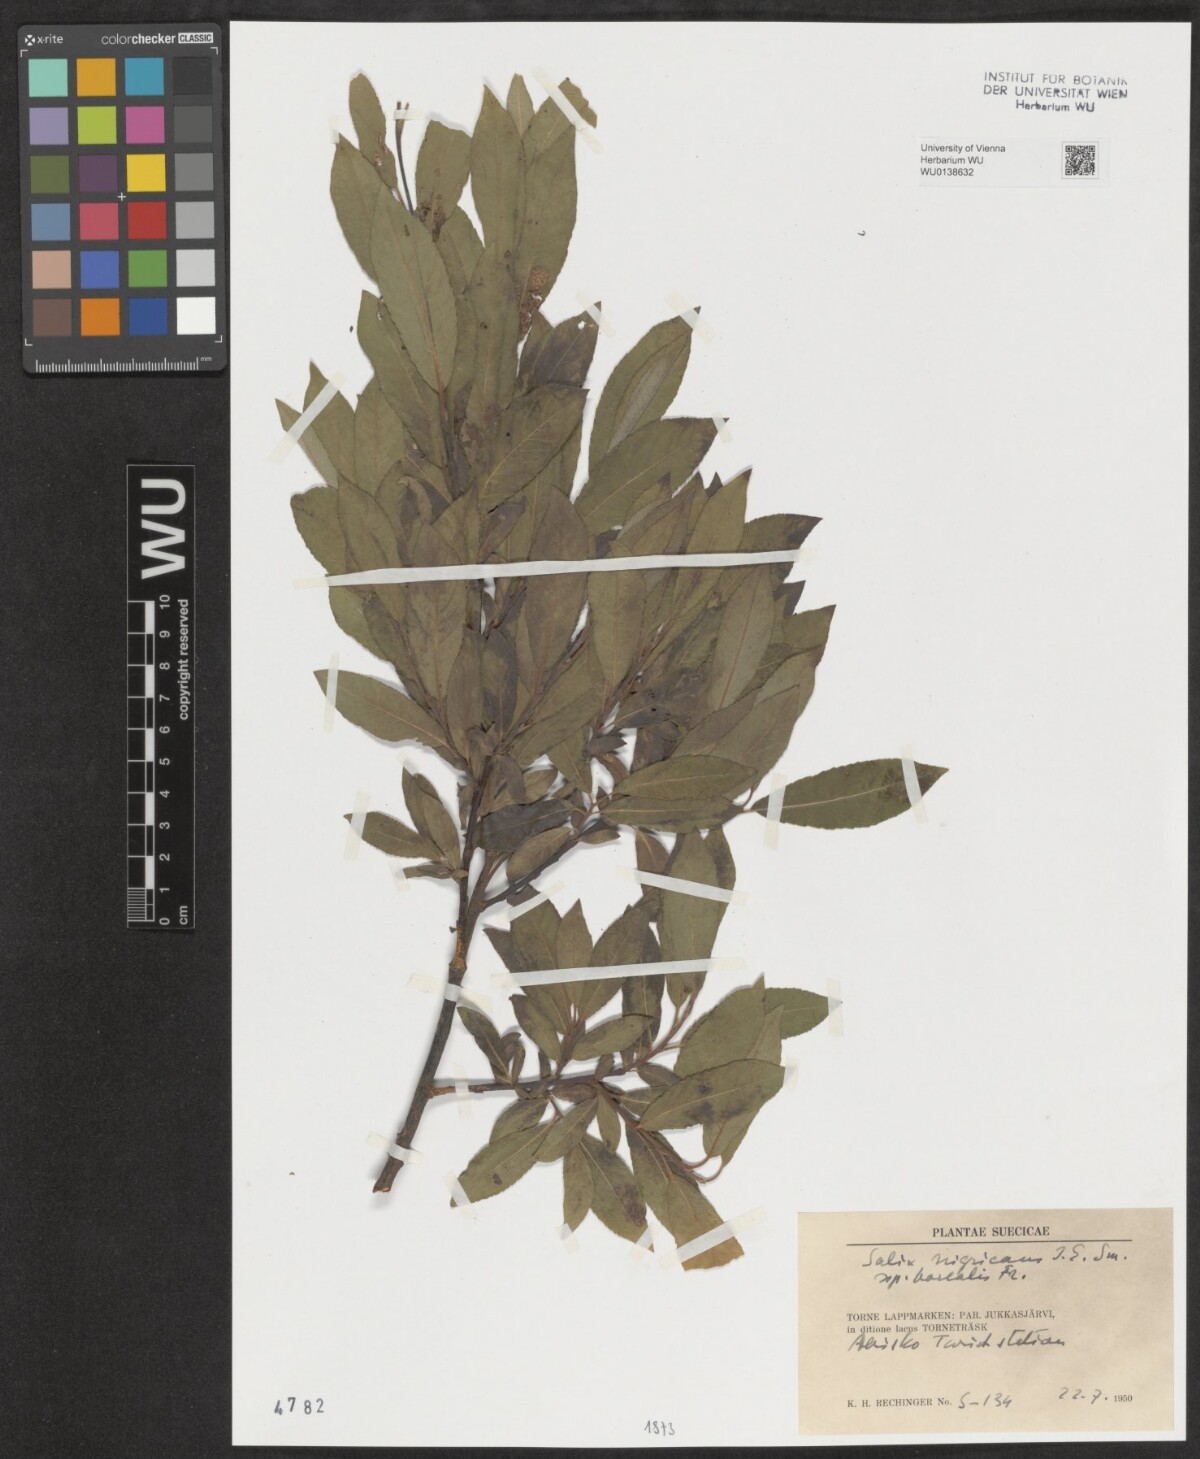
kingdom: Plantae
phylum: Tracheophyta
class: Magnoliopsida
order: Malpighiales
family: Salicaceae
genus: Salix
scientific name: Salix myrsinifolia
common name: Dark-leaved willow
